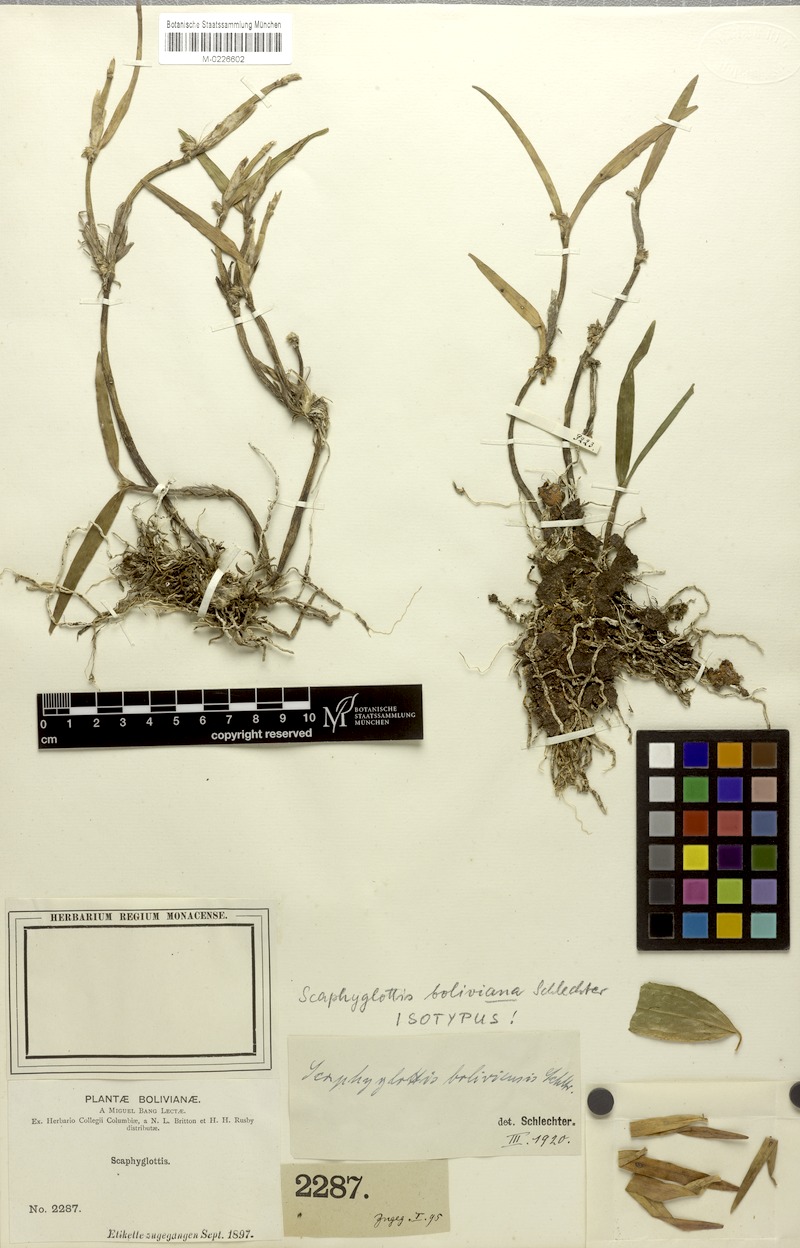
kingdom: Plantae
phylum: Tracheophyta
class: Liliopsida
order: Asparagales
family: Orchidaceae
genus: Scaphyglottis
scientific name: Scaphyglottis graminifolia
